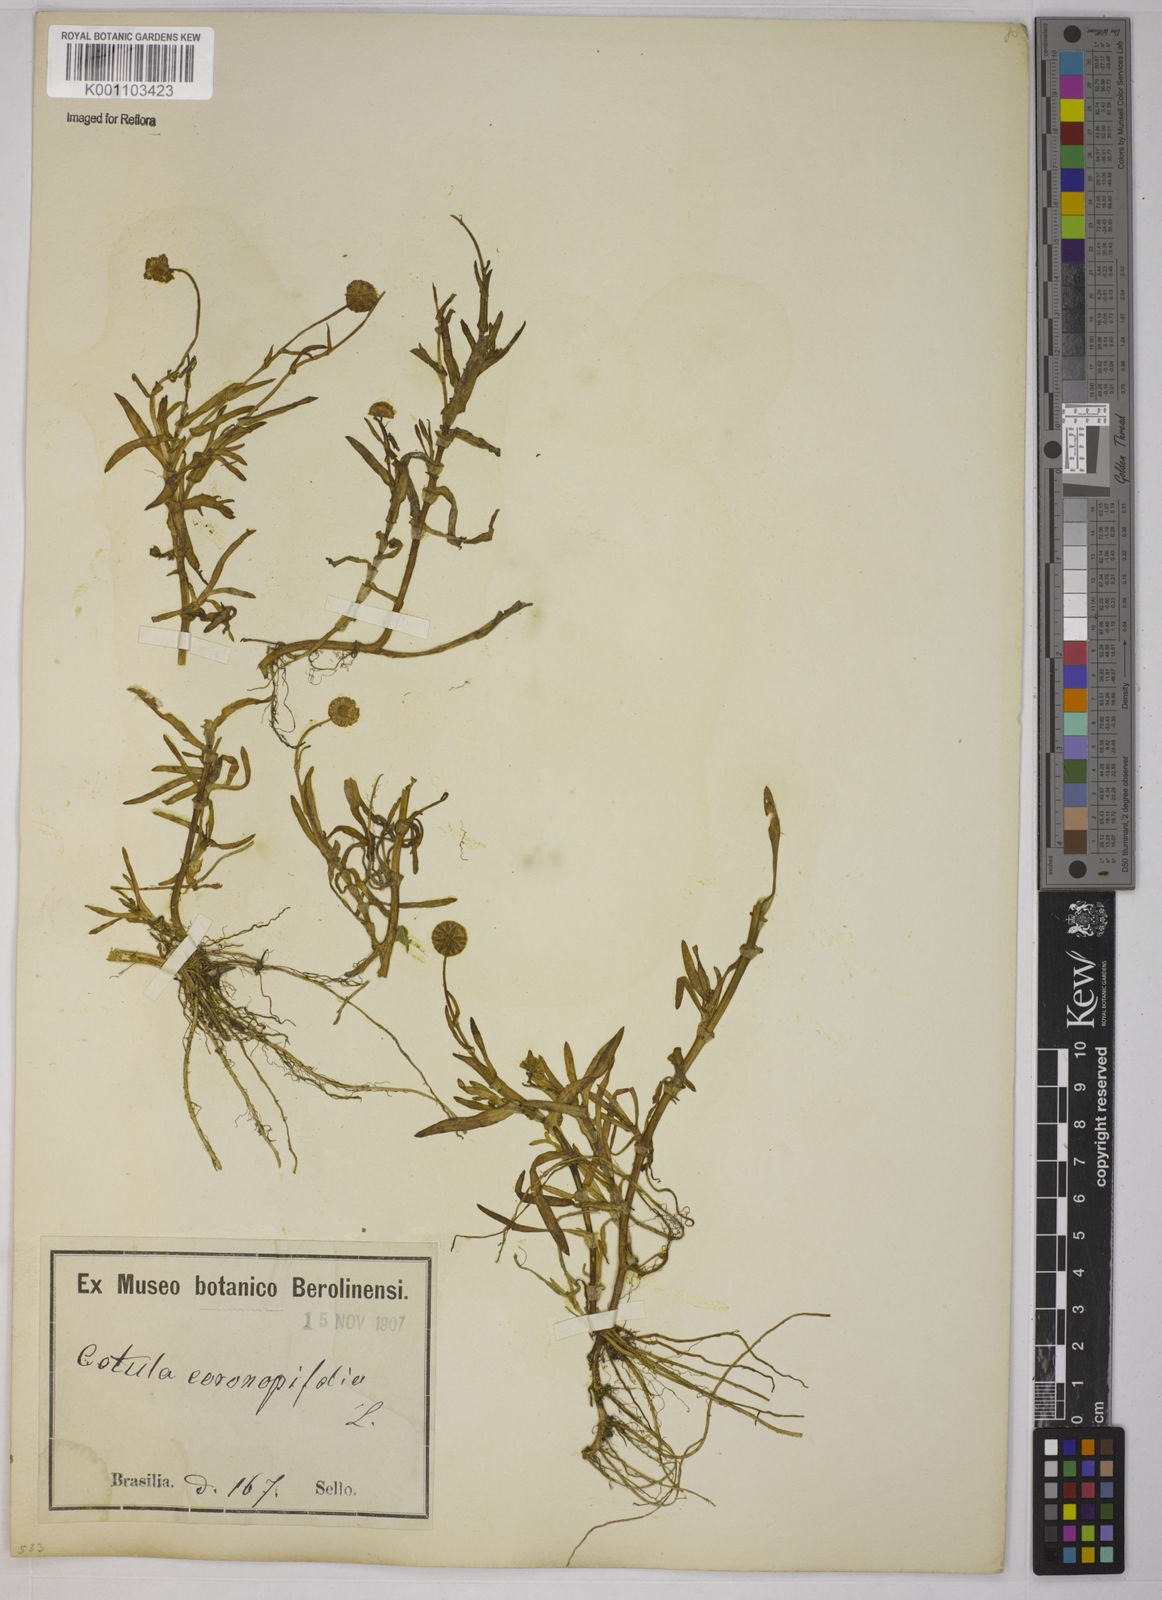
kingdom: Plantae
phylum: Tracheophyta
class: Magnoliopsida
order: Asterales
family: Asteraceae
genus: Cotula
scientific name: Cotula coronopifolia
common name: Buttonweed
